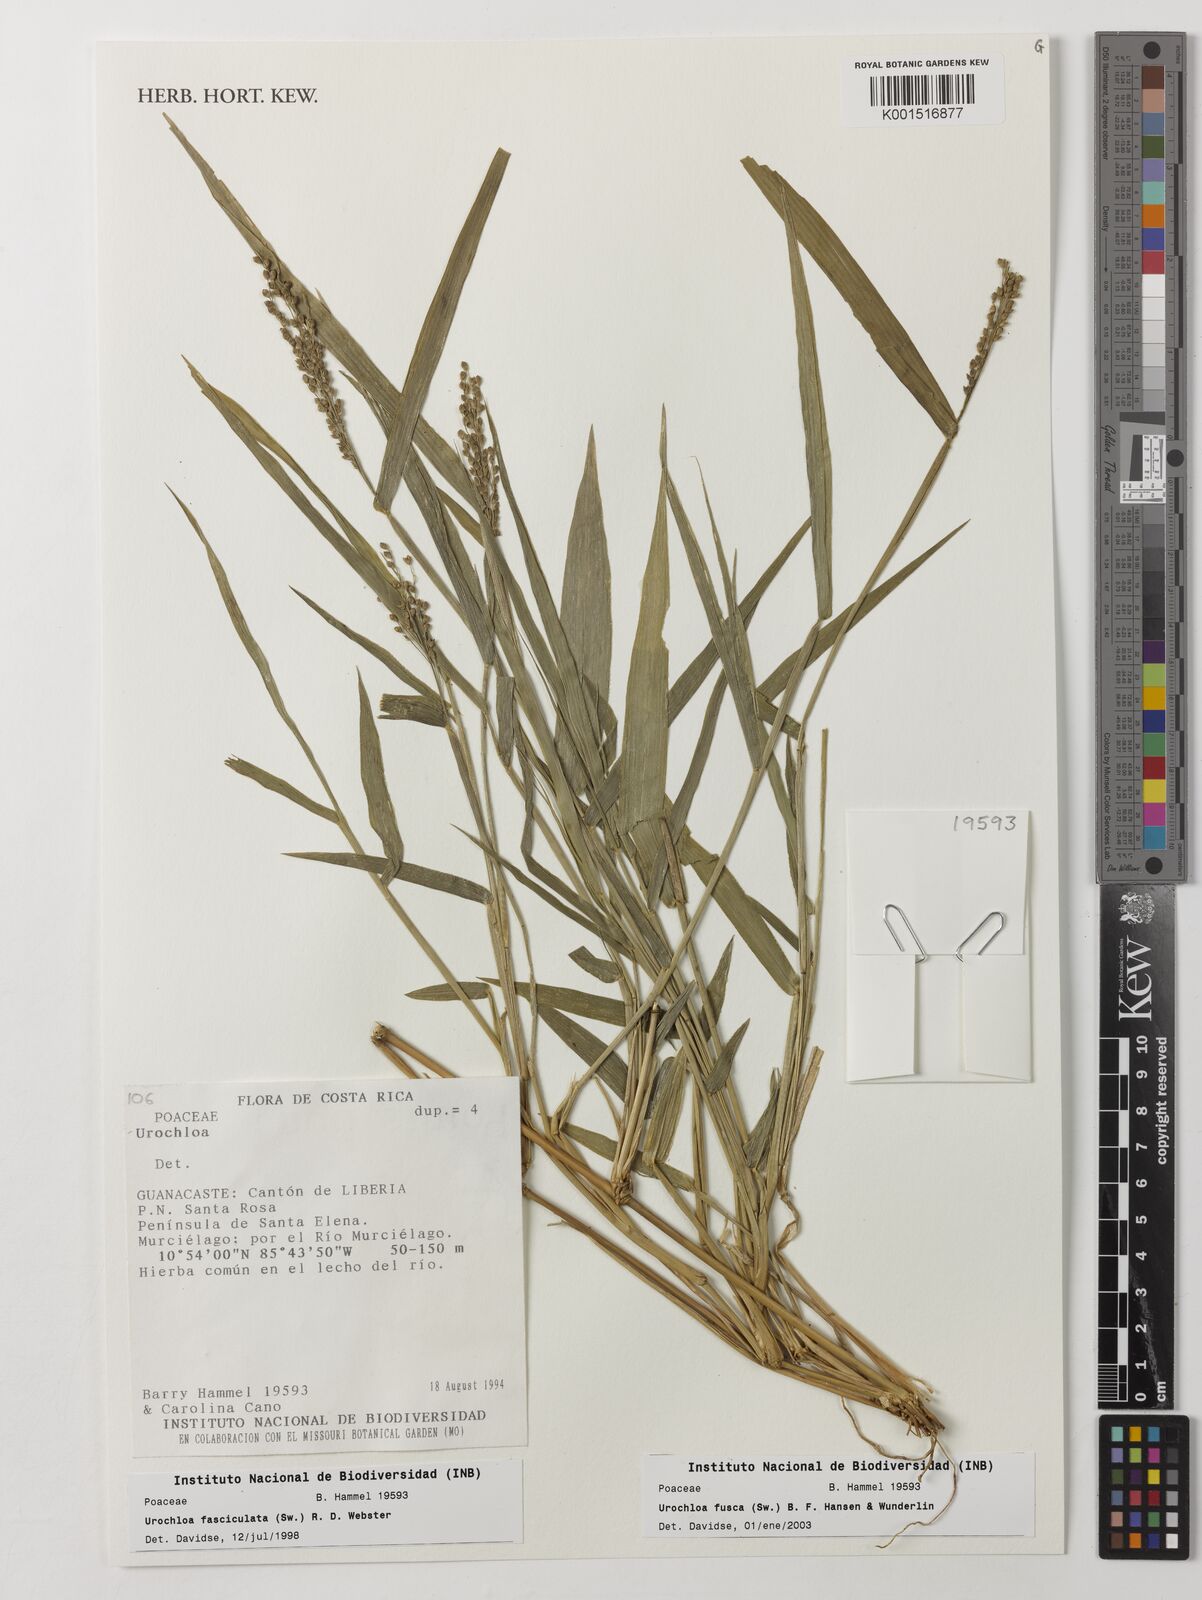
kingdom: Plantae
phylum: Tracheophyta
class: Liliopsida
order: Poales
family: Poaceae
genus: Urochloa
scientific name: Urochloa fusca
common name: Browntop signal grass
